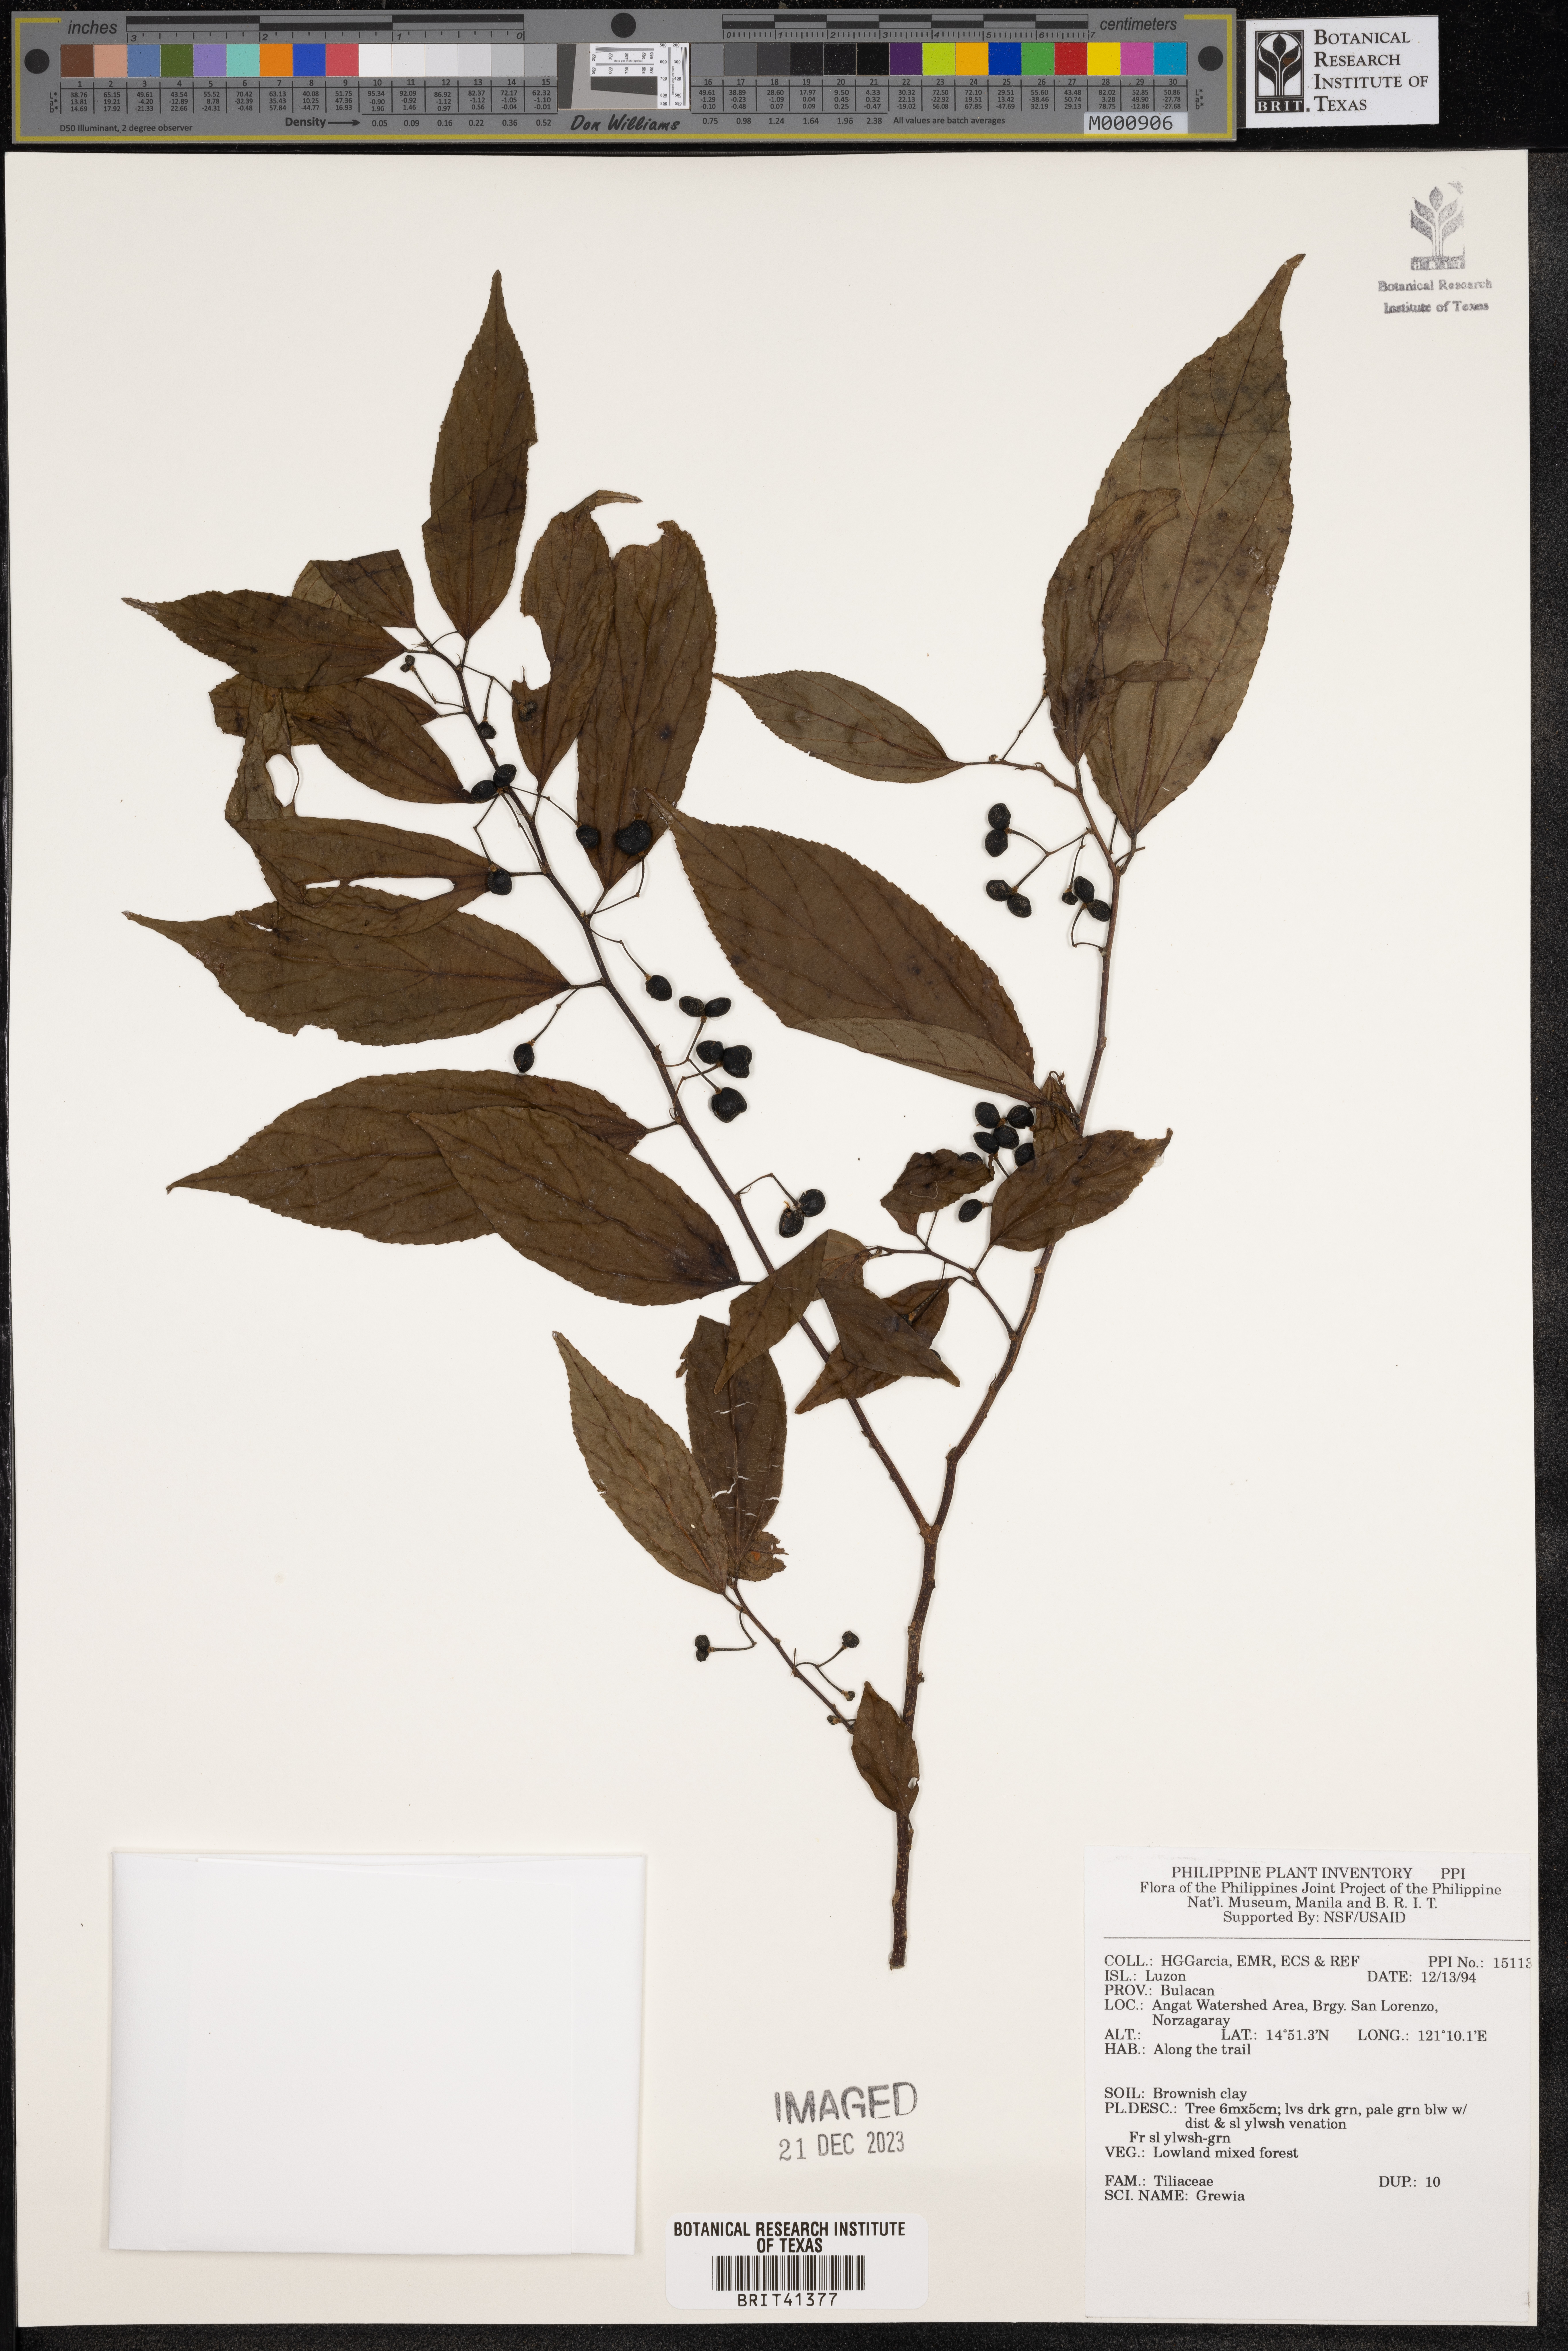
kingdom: Plantae
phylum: Tracheophyta
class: Magnoliopsida
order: Malvales
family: Malvaceae
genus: Grewia
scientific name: Grewia
